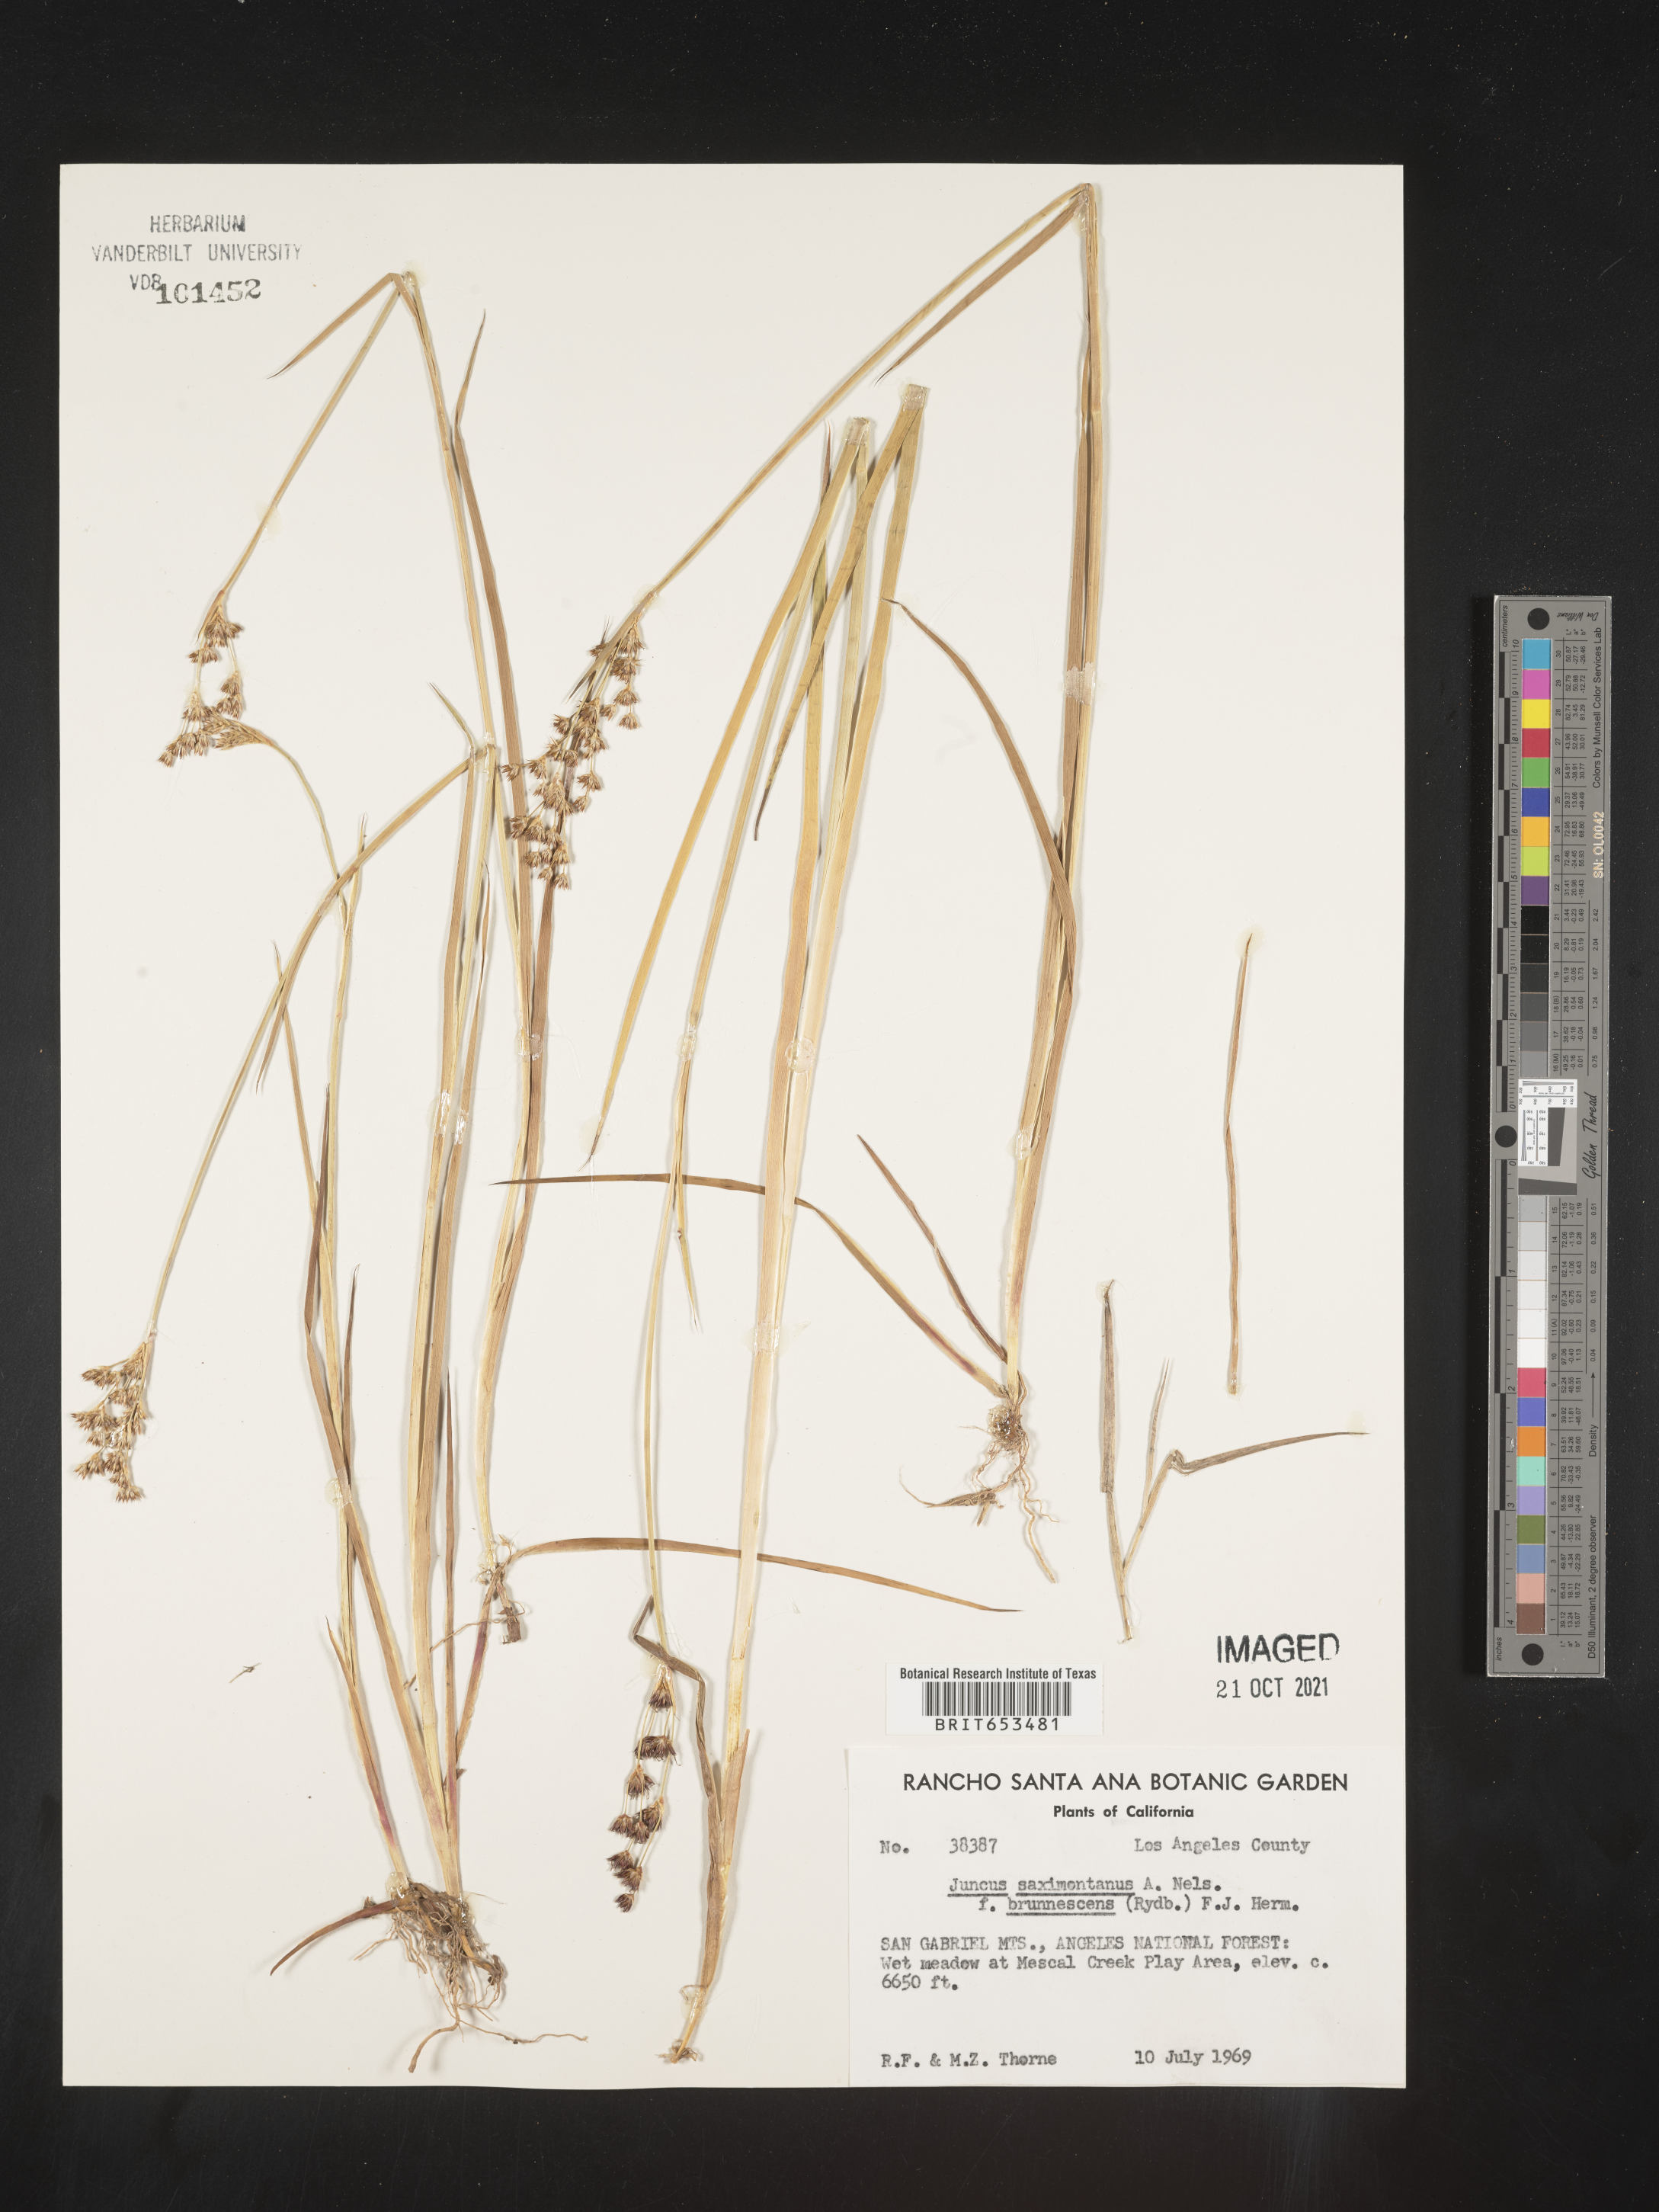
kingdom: Plantae
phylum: Tracheophyta
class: Liliopsida
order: Poales
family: Juncaceae
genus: Juncus
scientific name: Juncus saximontanus
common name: Rocky mountain rush
